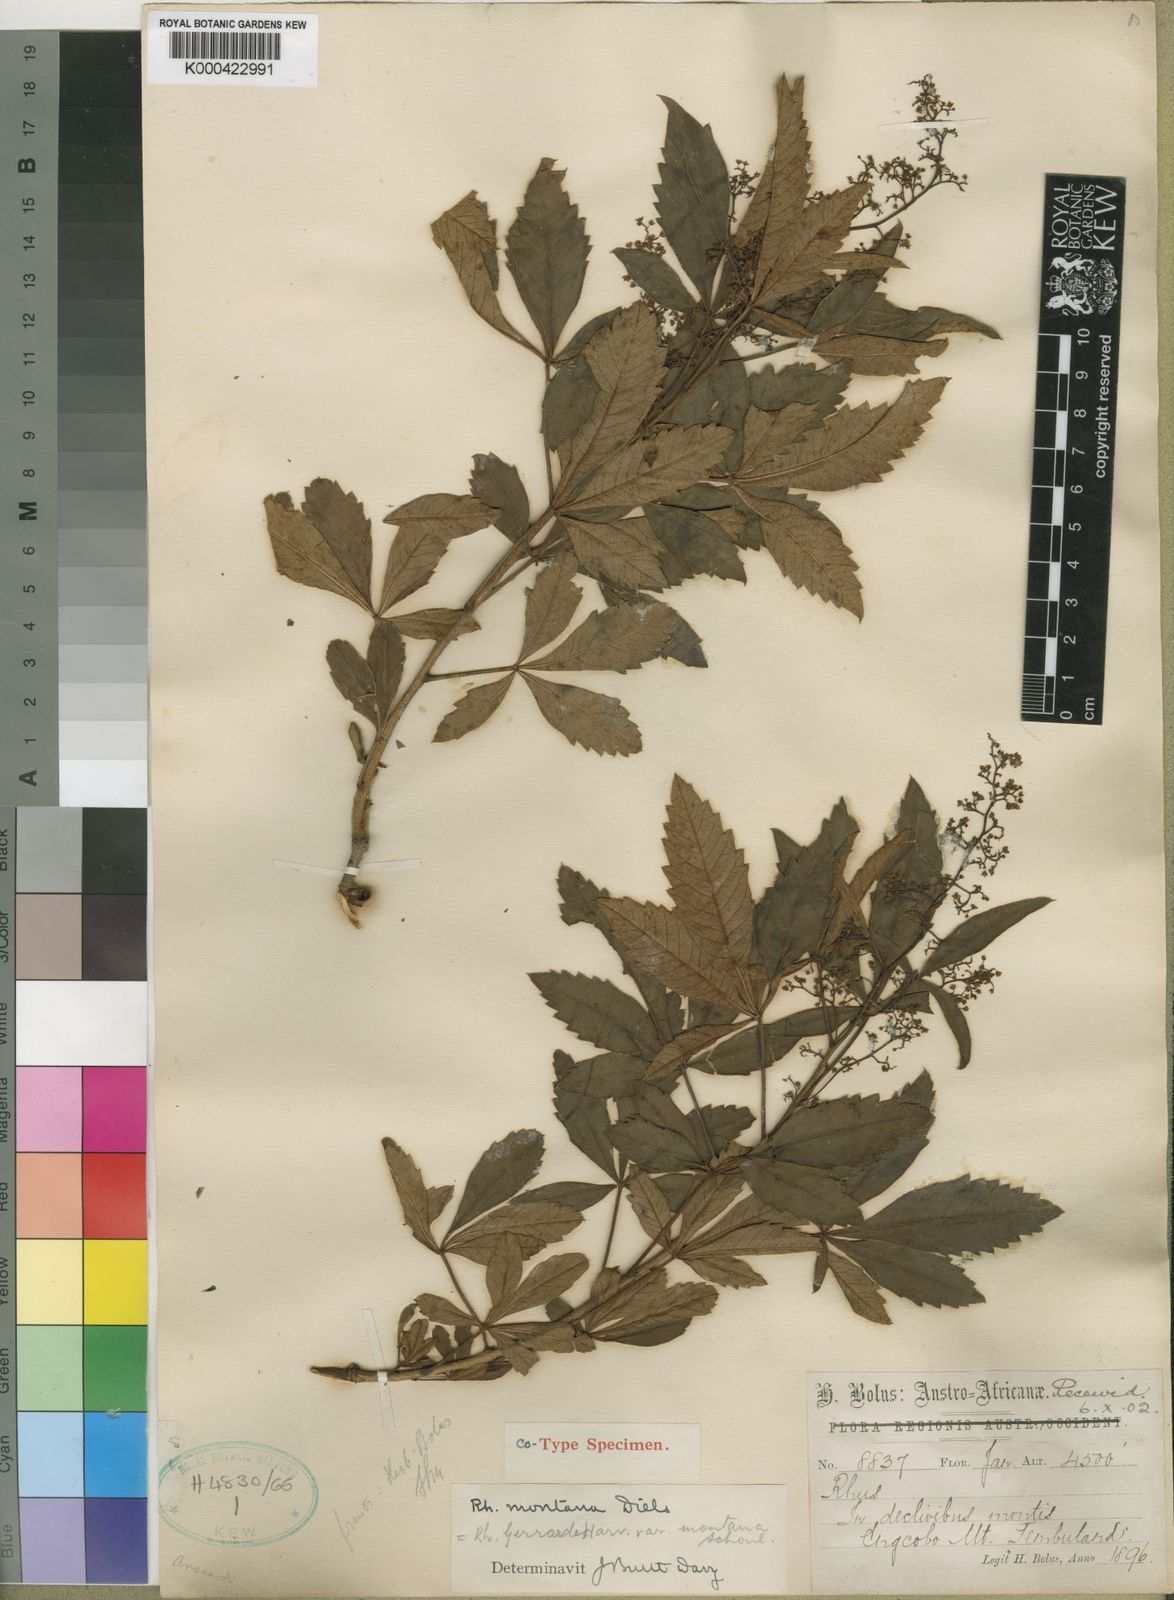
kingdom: Plantae
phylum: Tracheophyta
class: Magnoliopsida
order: Sapindales
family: Anacardiaceae
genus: Searsia
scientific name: Searsia gerrardii
